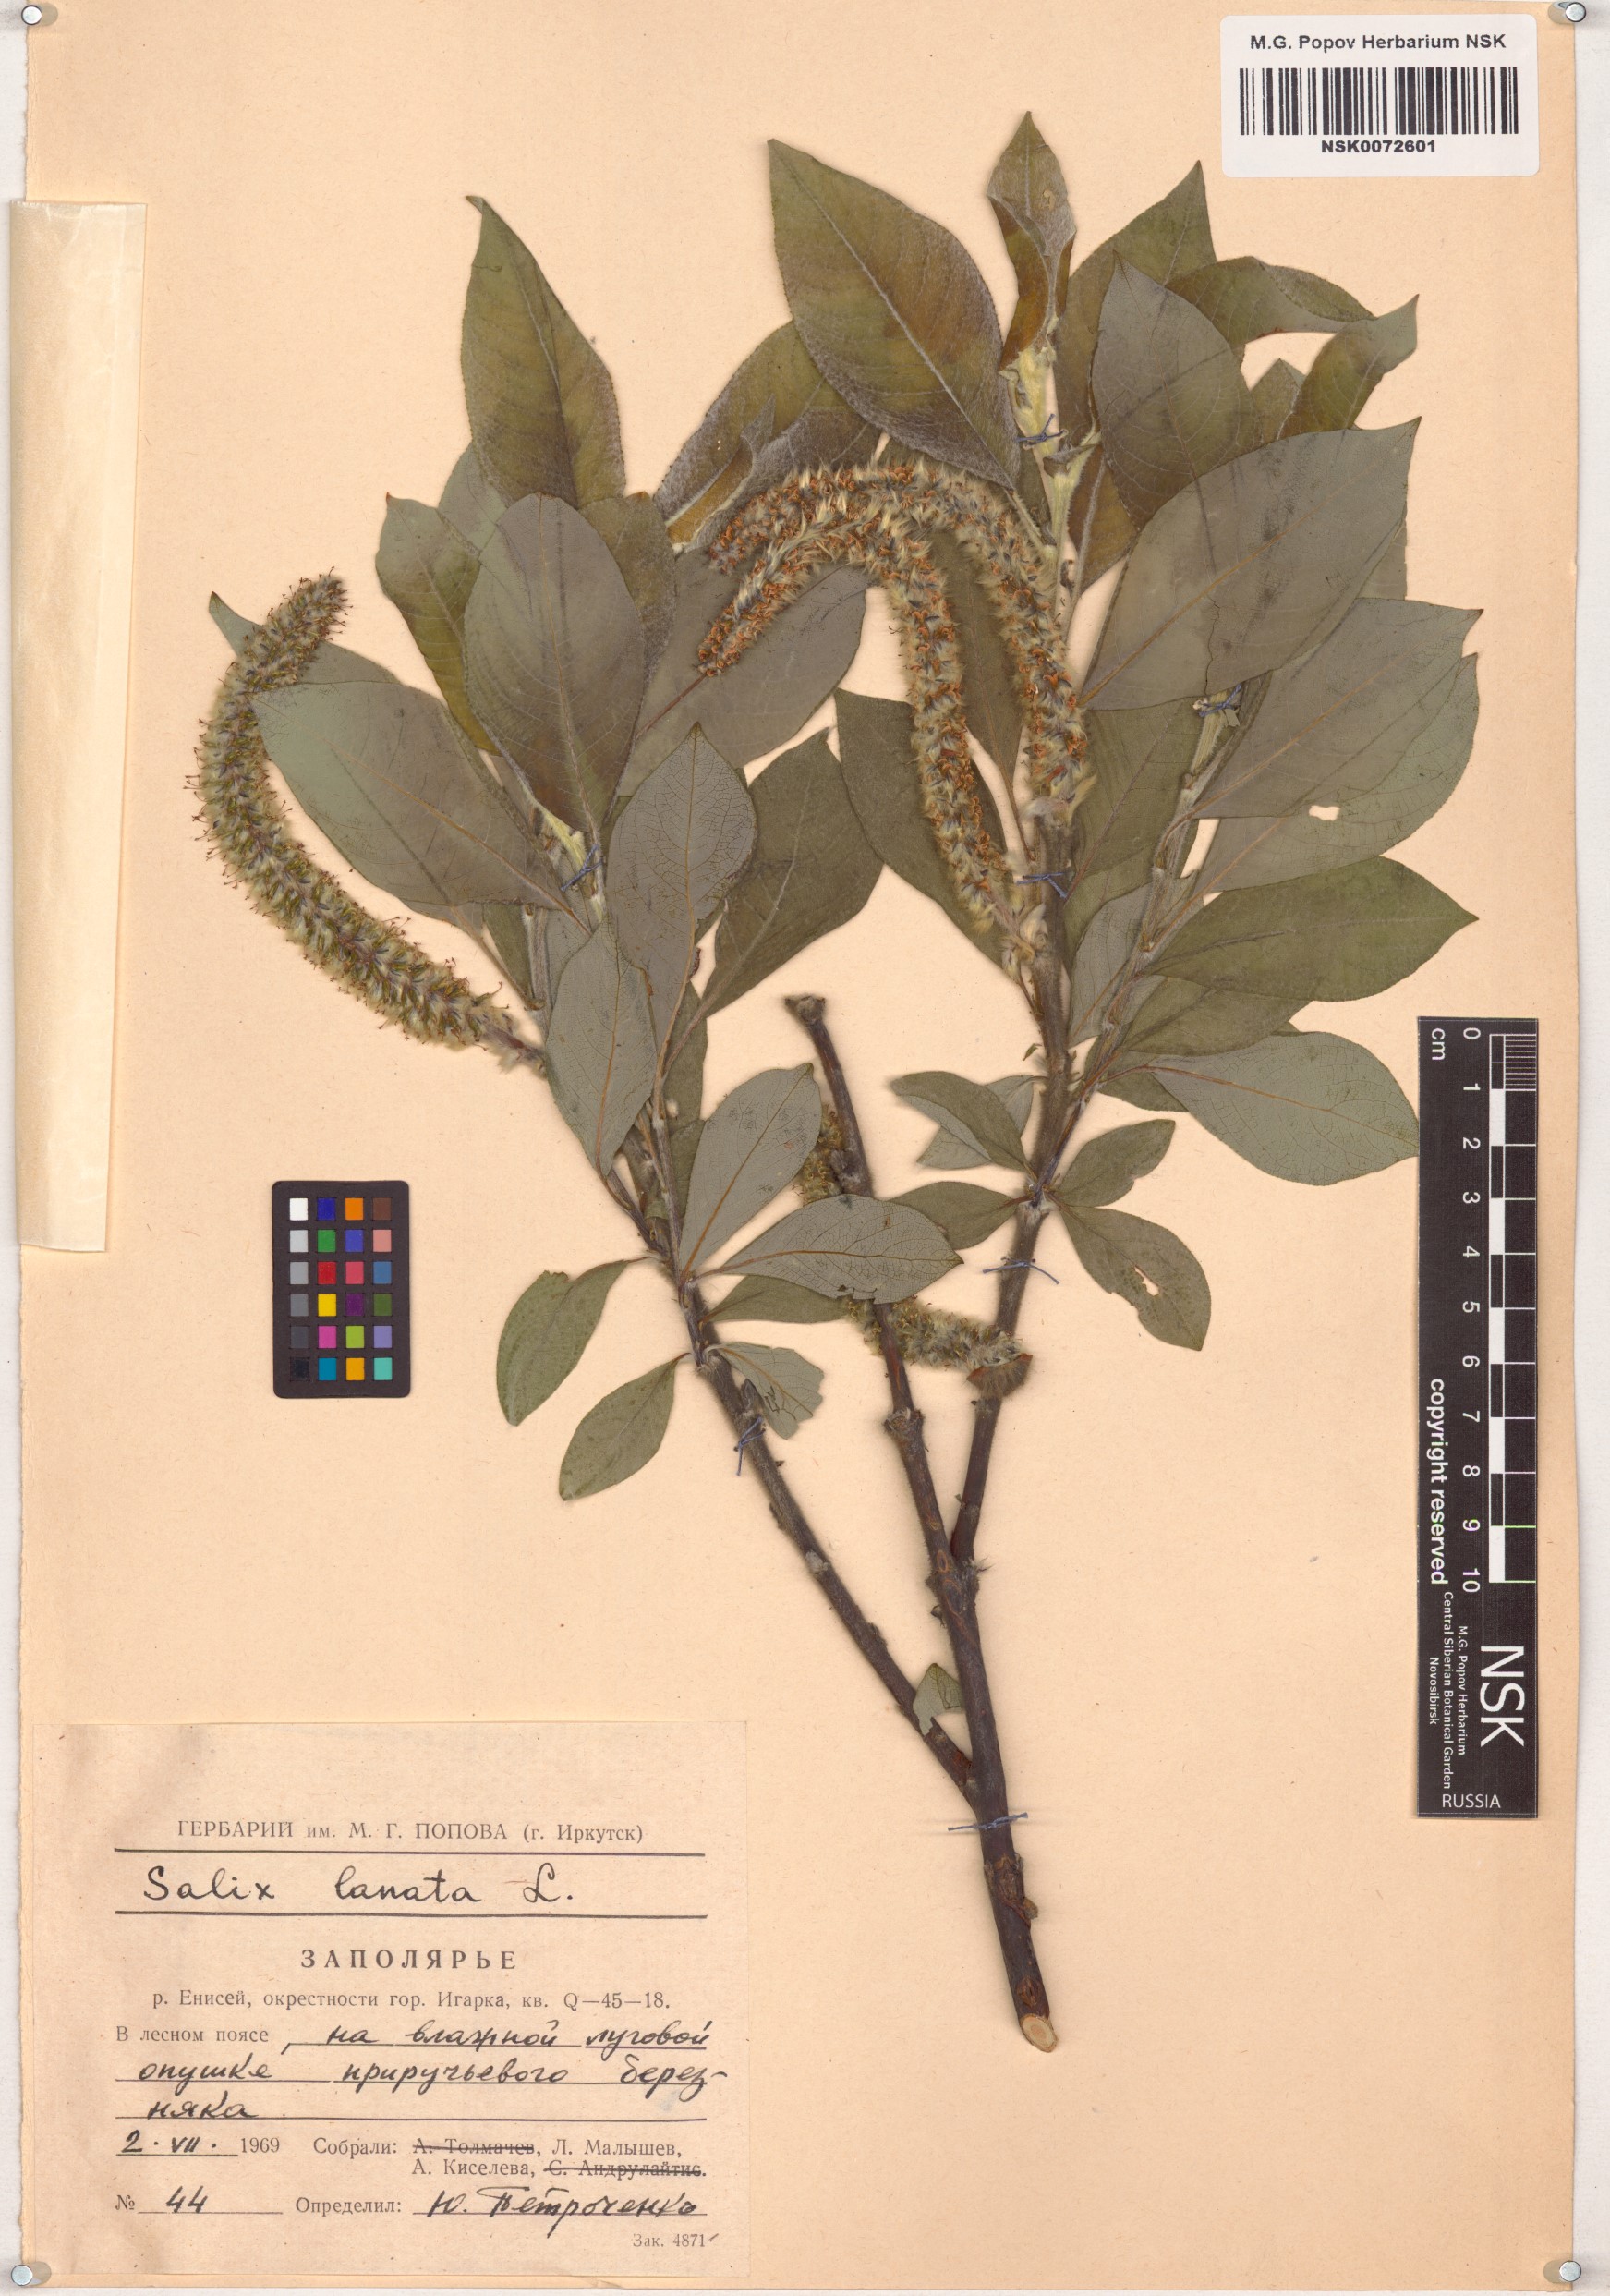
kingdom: Plantae
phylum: Tracheophyta
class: Magnoliopsida
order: Malpighiales
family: Salicaceae
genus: Salix
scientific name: Salix lanata
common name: Woolly willow
